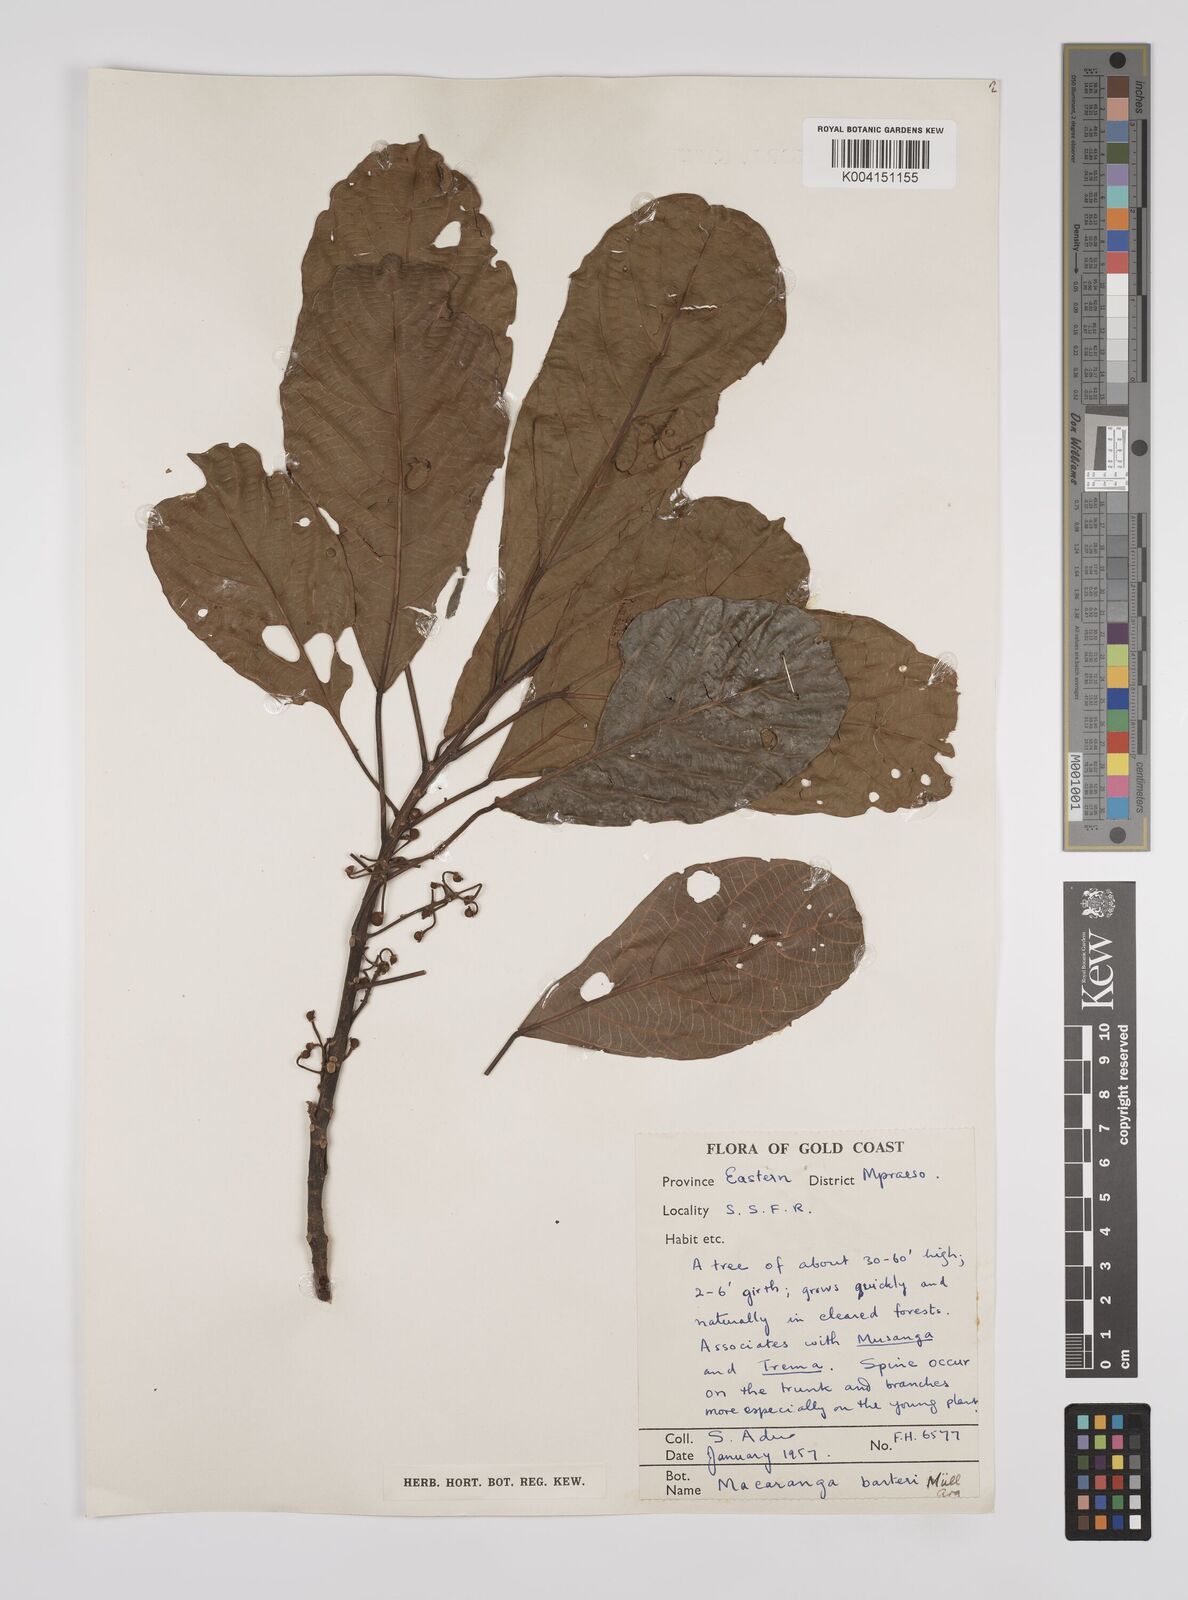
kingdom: Plantae
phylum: Tracheophyta
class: Magnoliopsida
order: Malpighiales
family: Euphorbiaceae
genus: Macaranga
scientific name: Macaranga barteri
